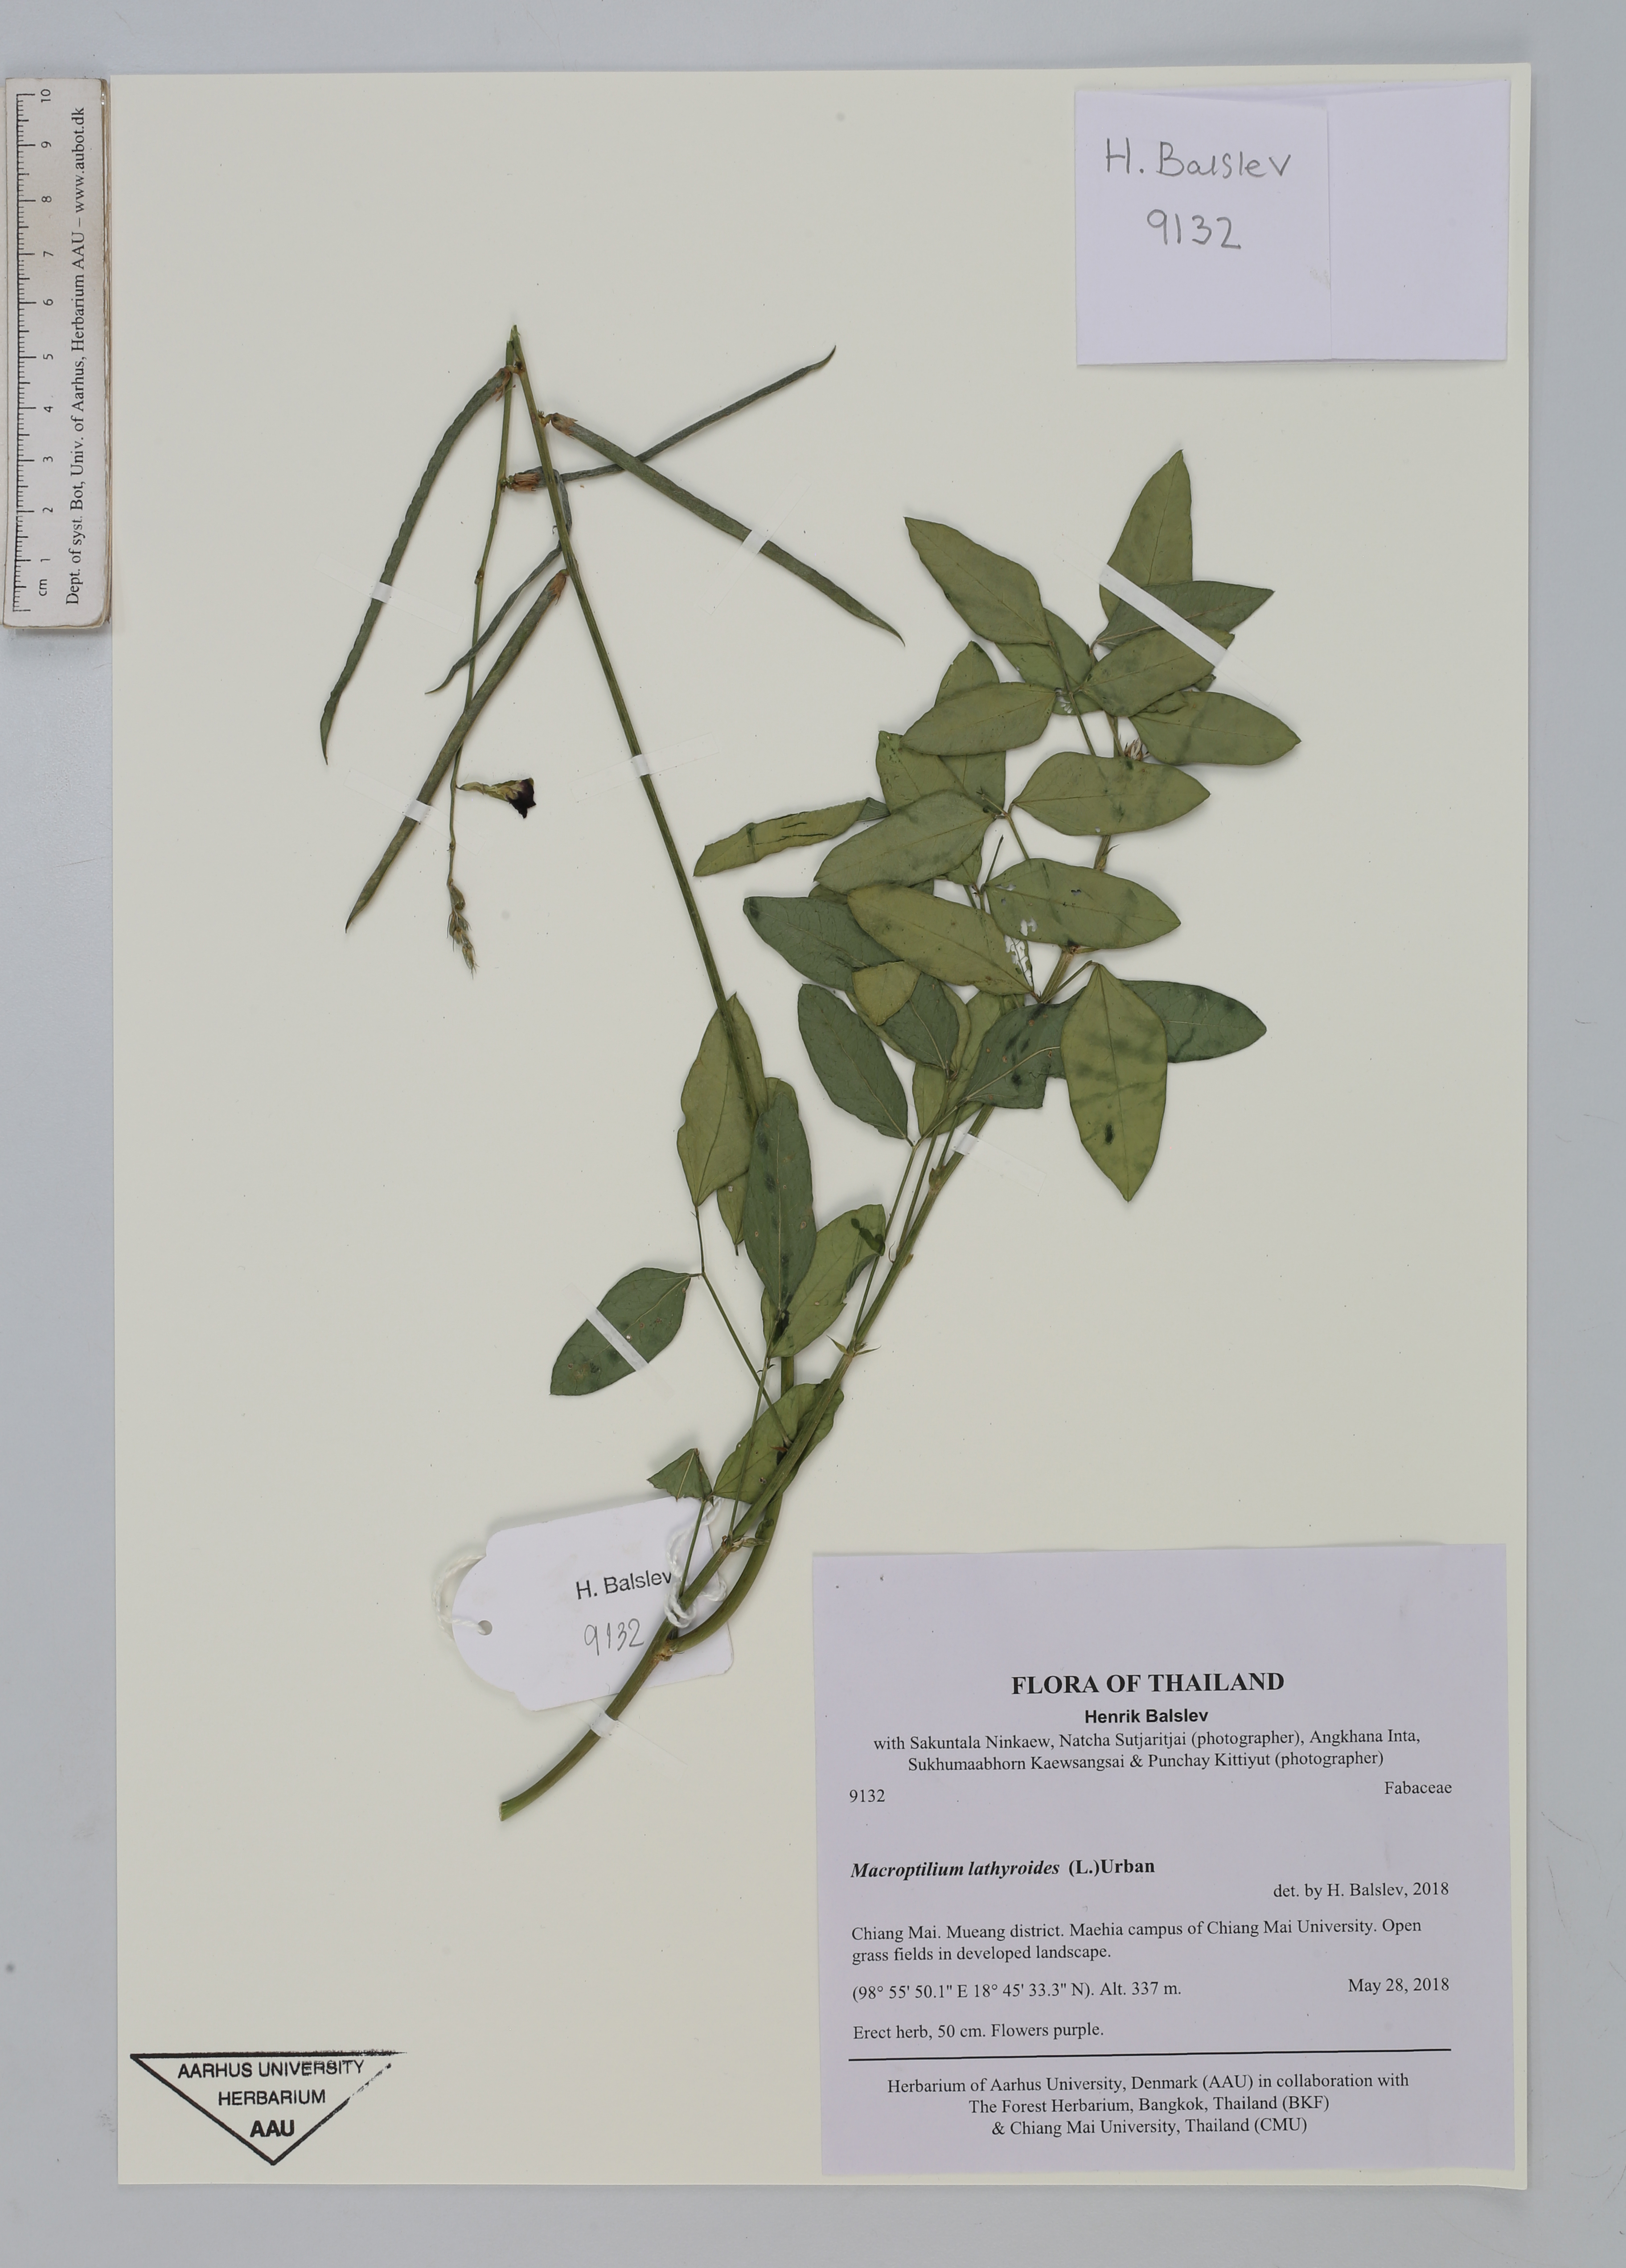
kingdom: Plantae
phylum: Tracheophyta
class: Magnoliopsida
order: Fabales
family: Fabaceae
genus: Macroptilium
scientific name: Macroptilium lathyroides
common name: Wild bushbean
